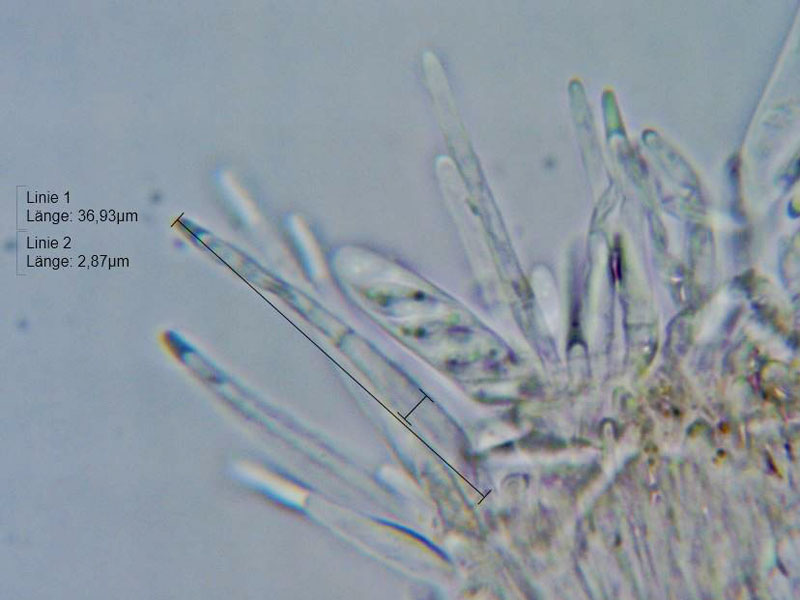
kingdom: Fungi
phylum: Ascomycota
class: Leotiomycetes
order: Helotiales
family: Hyaloscyphaceae
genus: Protounguicularia
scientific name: Protounguicularia transiens
